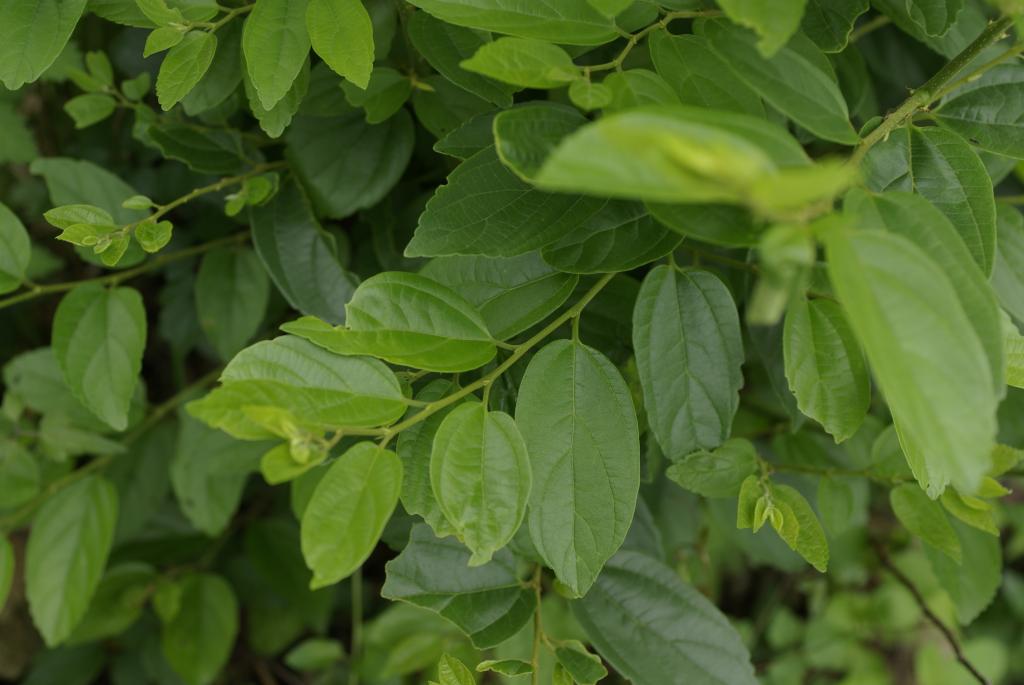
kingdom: Plantae
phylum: Tracheophyta
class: Magnoliopsida
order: Rosales
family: Cannabaceae
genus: Celtis
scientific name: Celtis sinensis
